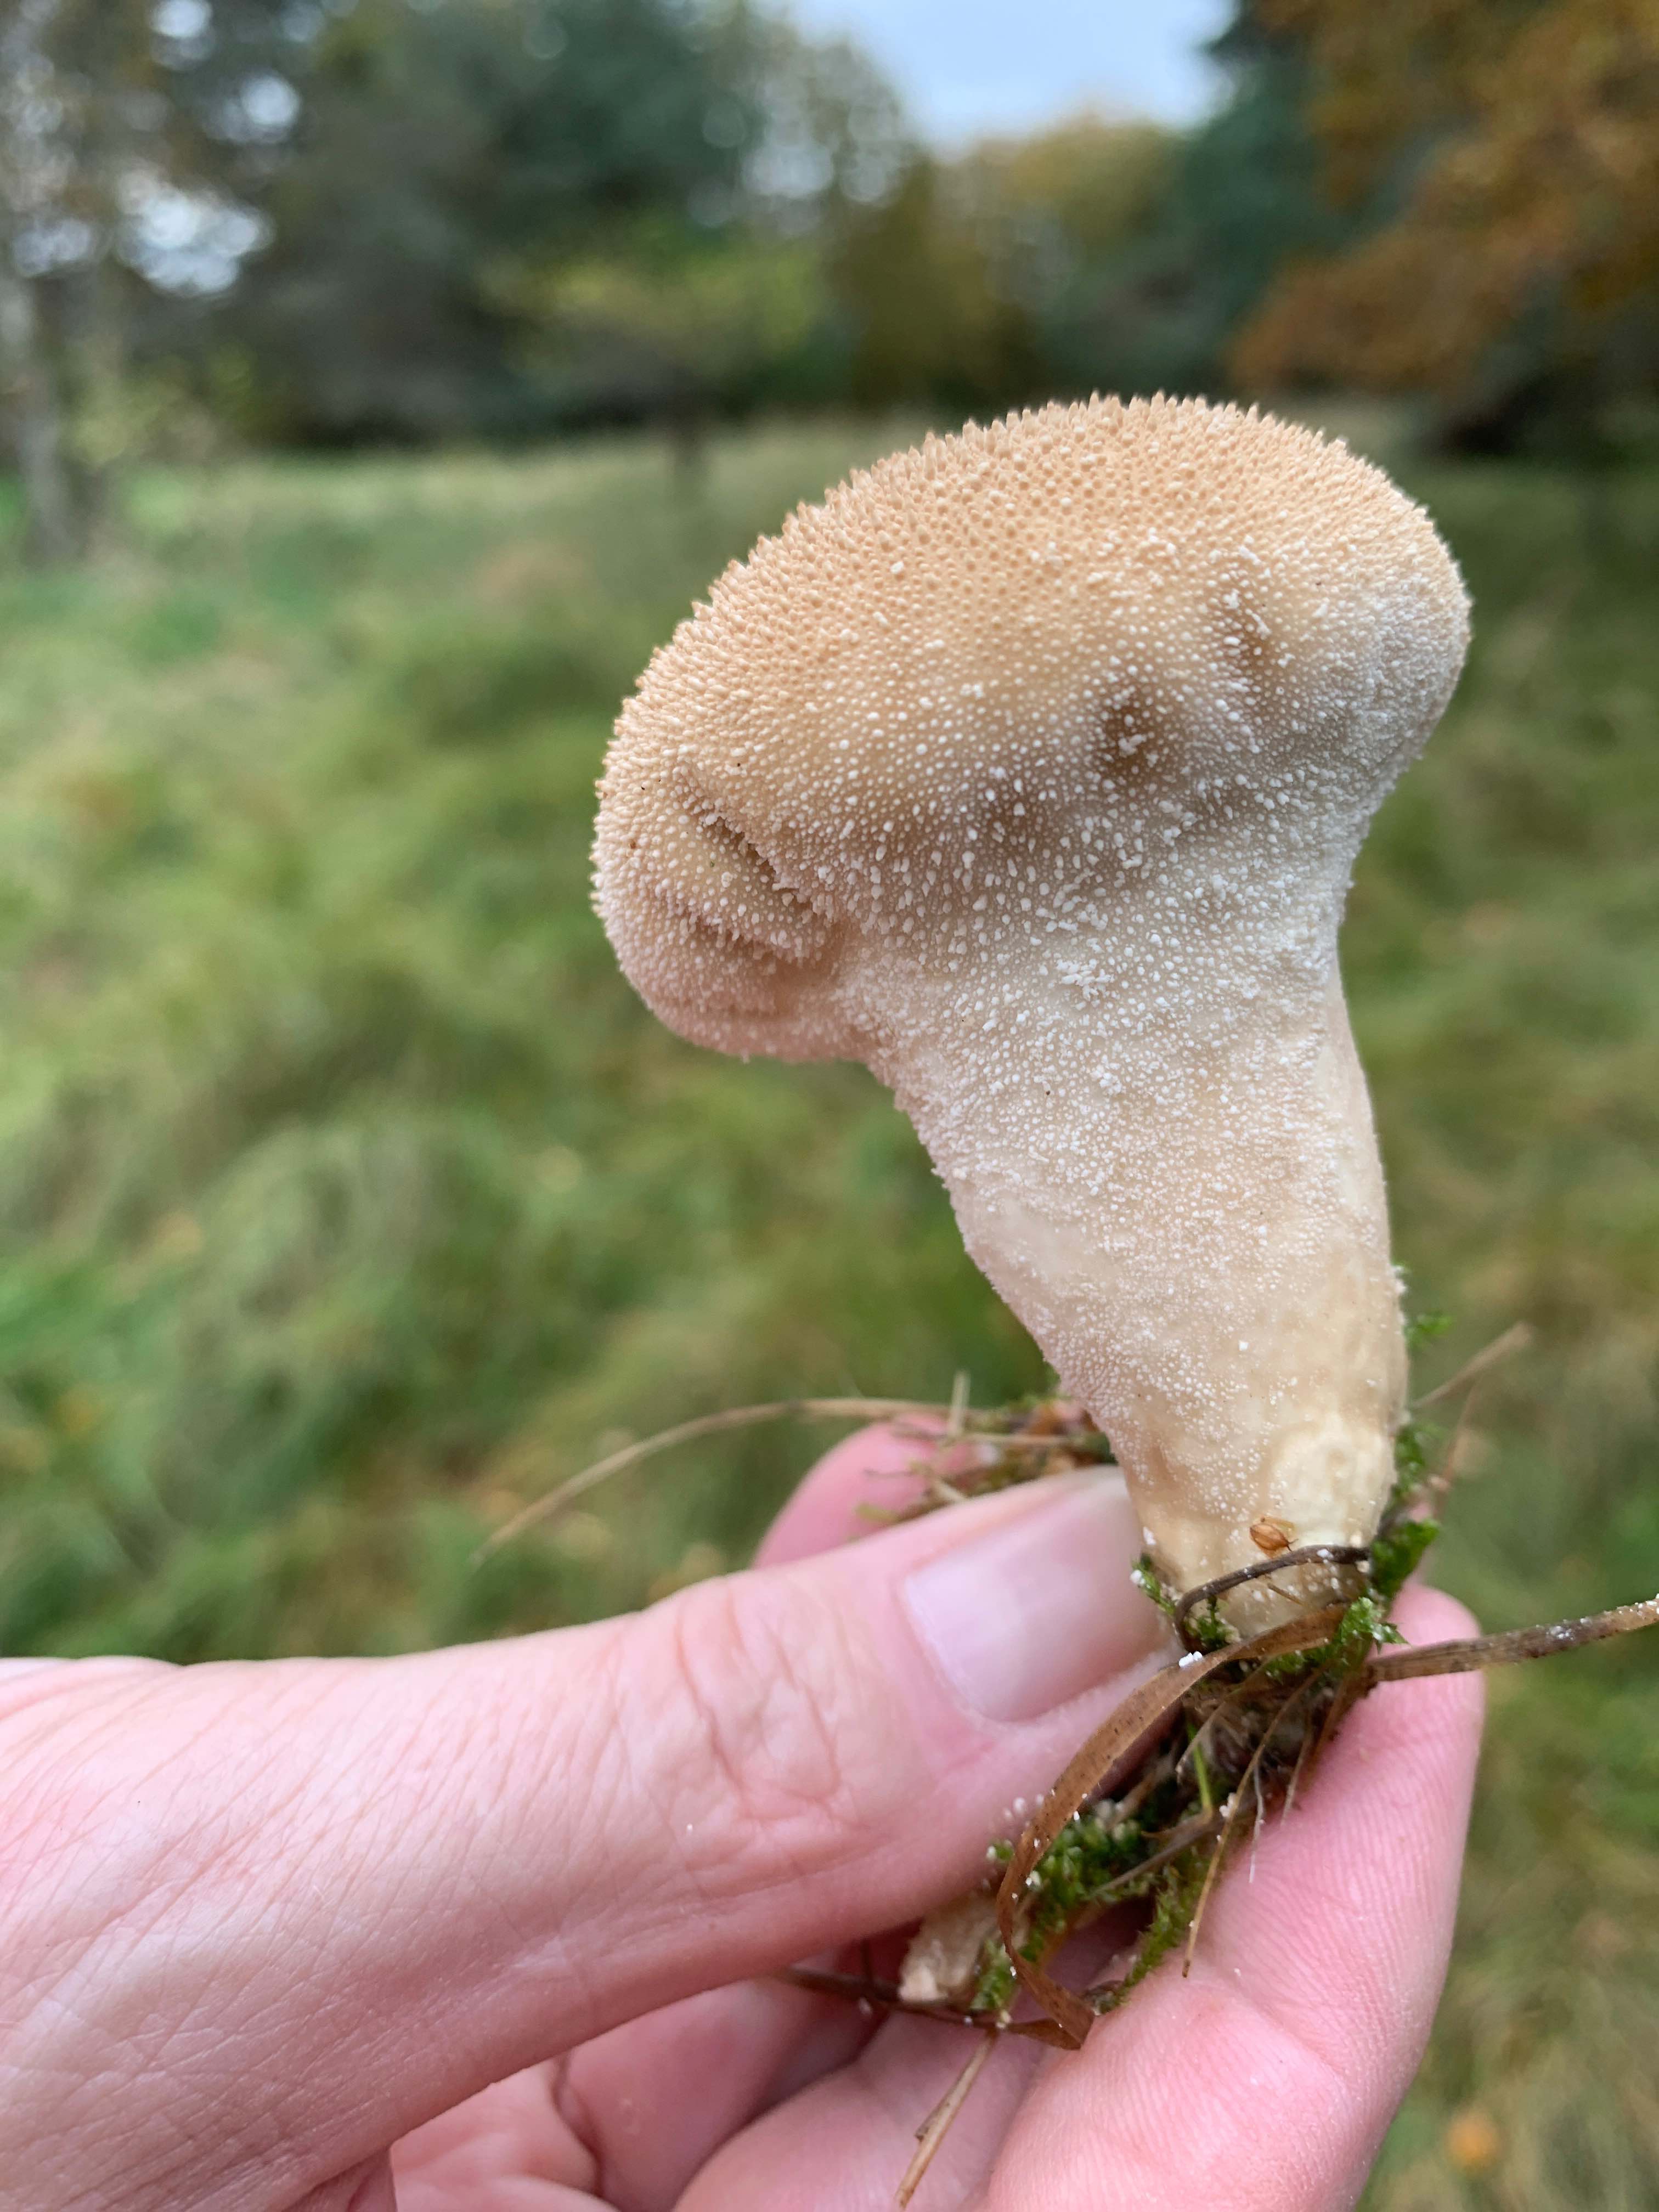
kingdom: Fungi
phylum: Basidiomycota
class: Agaricomycetes
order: Agaricales
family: Lycoperdaceae
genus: Lycoperdon
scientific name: Lycoperdon perlatum
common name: krystal-støvbold
